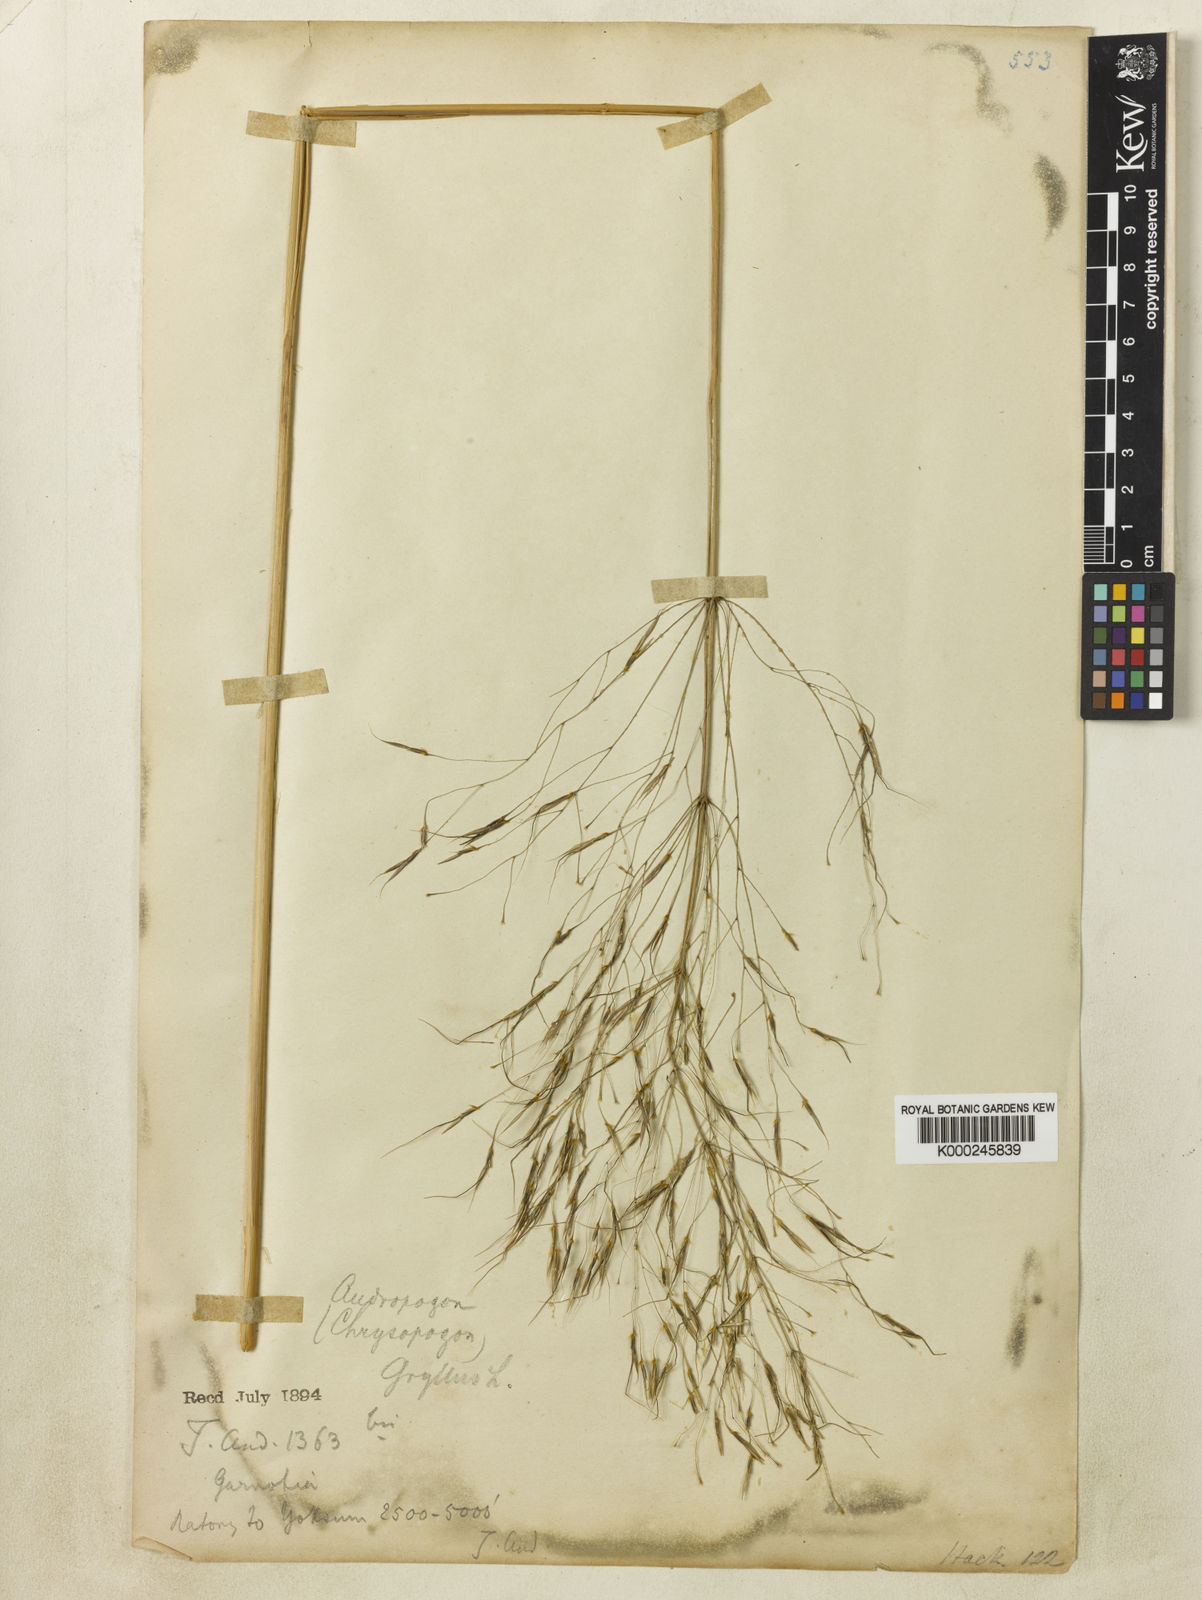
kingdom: Plantae
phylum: Tracheophyta
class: Liliopsida
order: Poales
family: Poaceae
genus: Chrysopogon
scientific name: Chrysopogon gryllus
